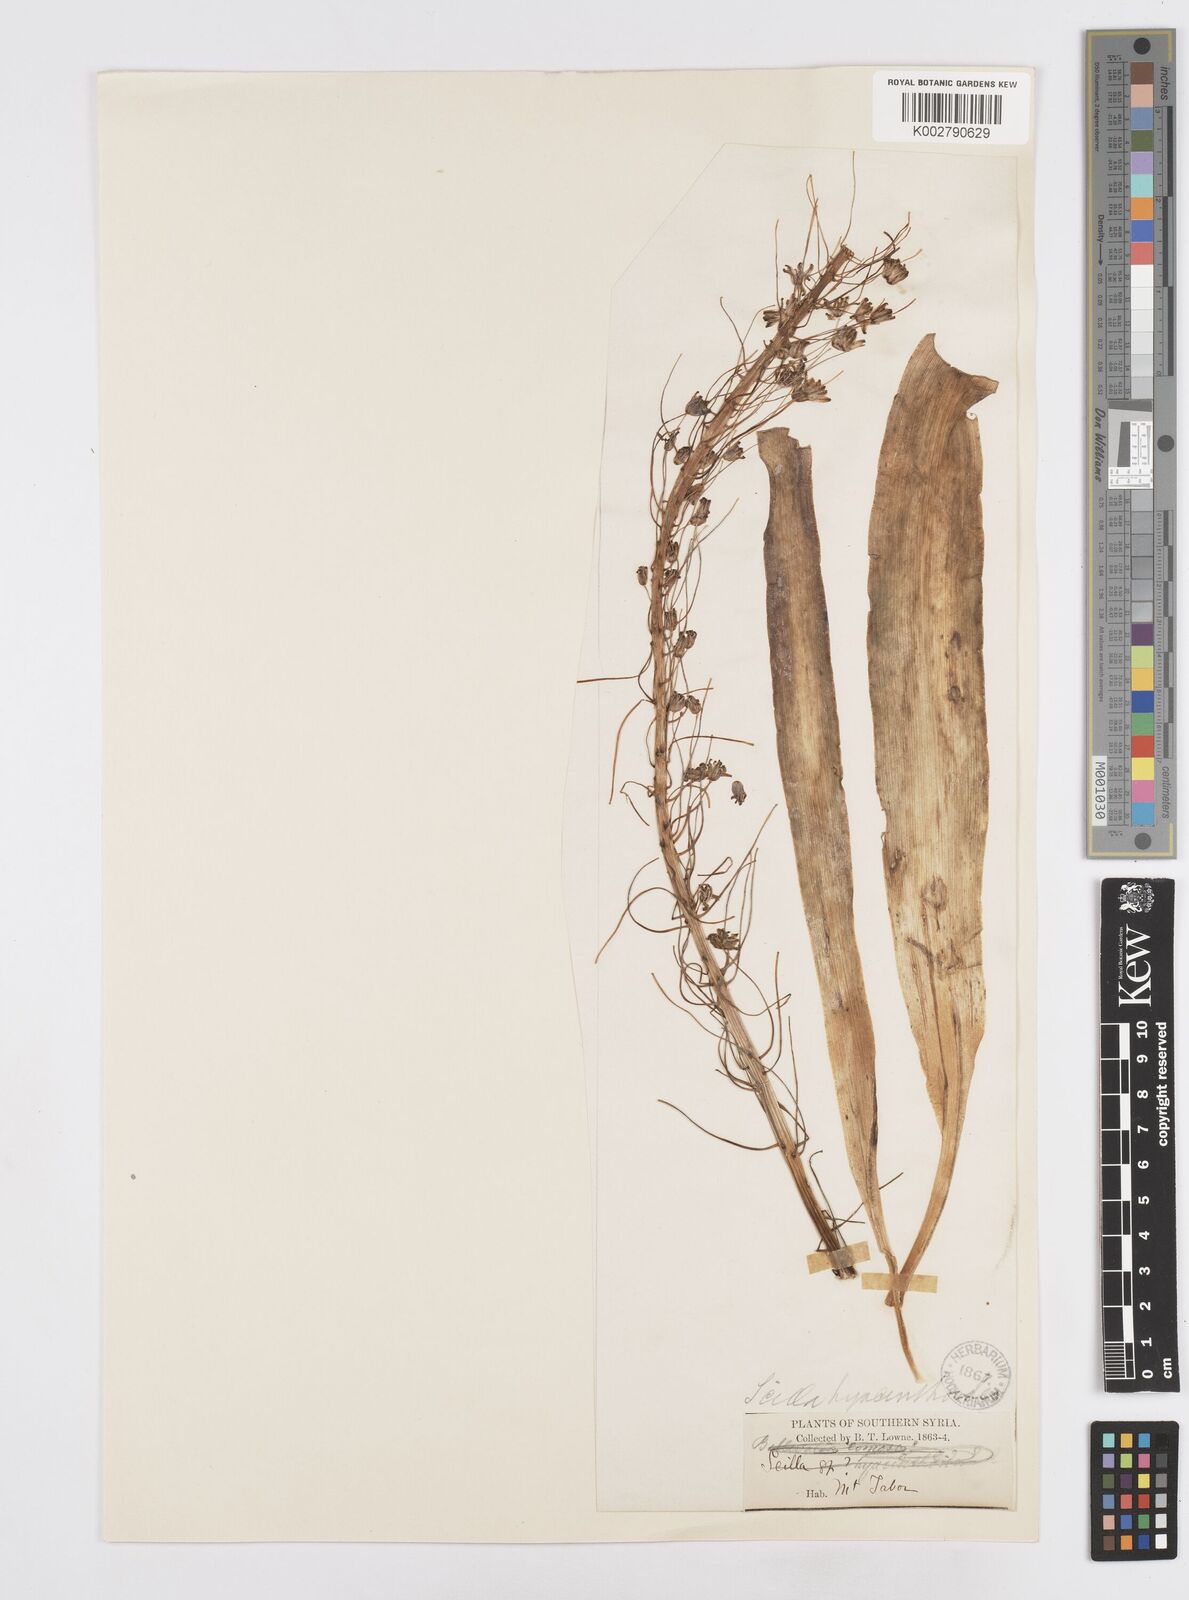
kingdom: Plantae
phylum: Tracheophyta
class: Liliopsida
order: Asparagales
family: Asparagaceae
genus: Scilla
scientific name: Scilla hyacinthoides
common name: Scilla
